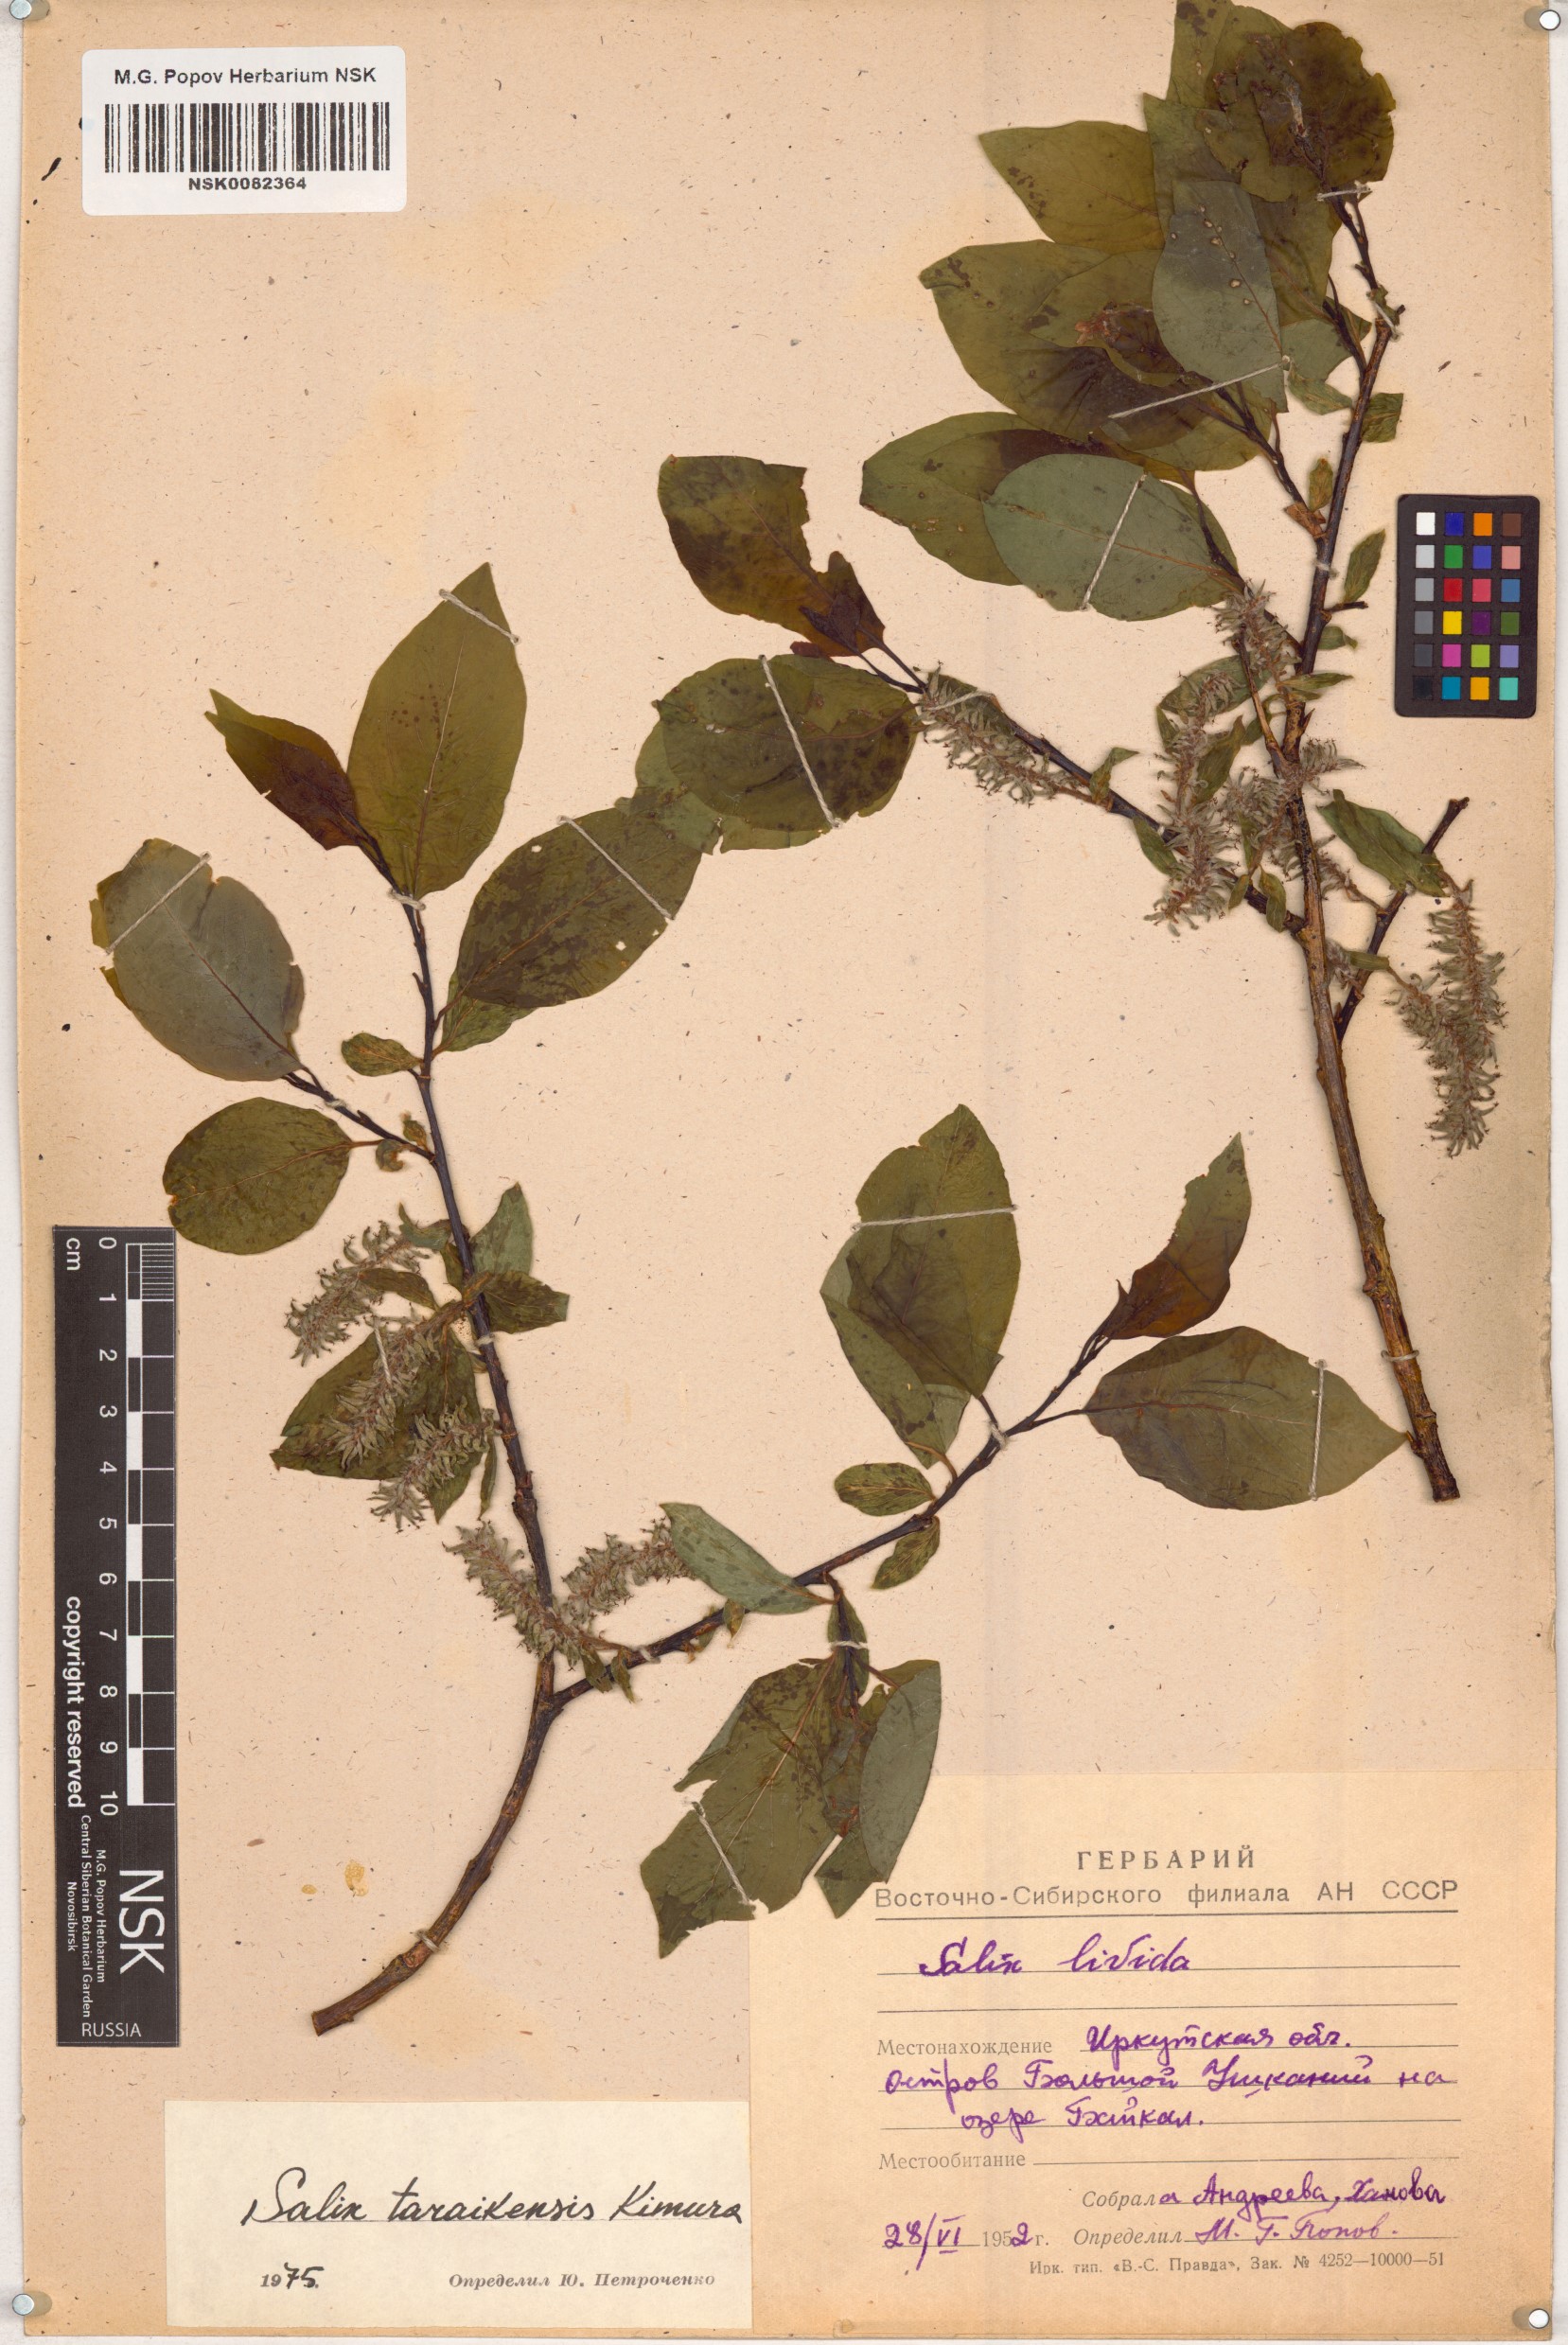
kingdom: Plantae
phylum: Tracheophyta
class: Magnoliopsida
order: Malpighiales
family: Salicaceae
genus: Salix
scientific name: Salix taraikensis
